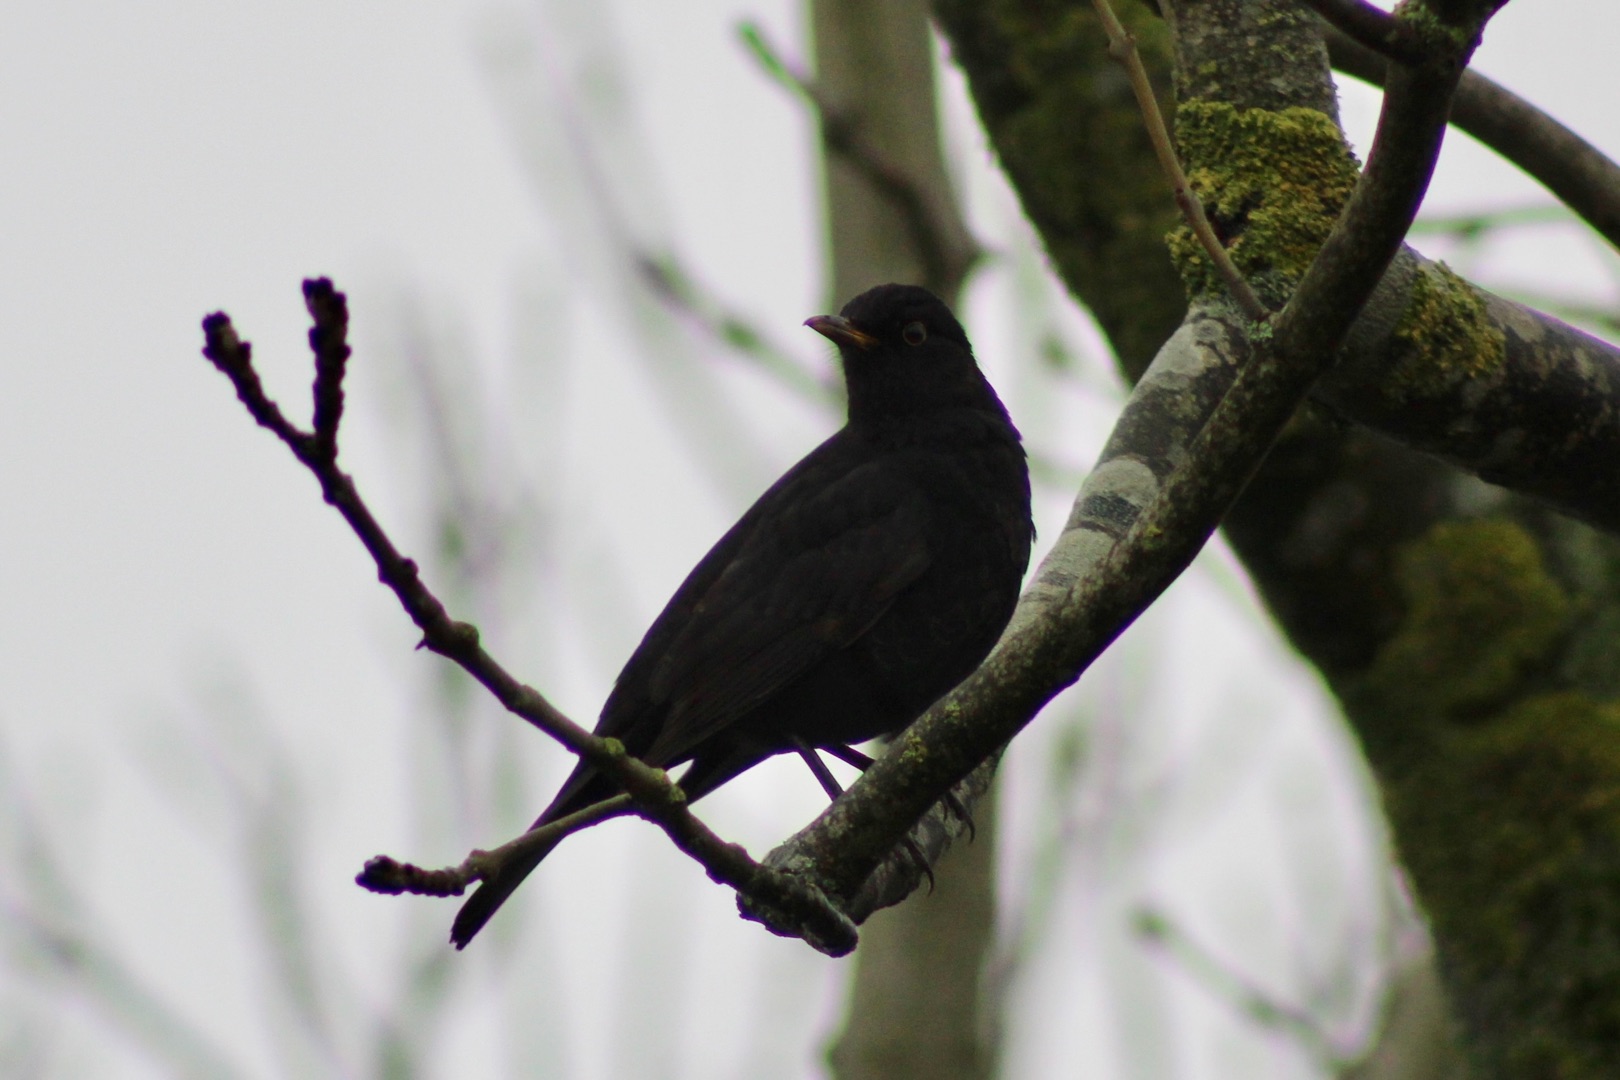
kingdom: Animalia
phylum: Chordata
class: Aves
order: Passeriformes
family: Turdidae
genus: Turdus
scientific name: Turdus merula
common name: Solsort
